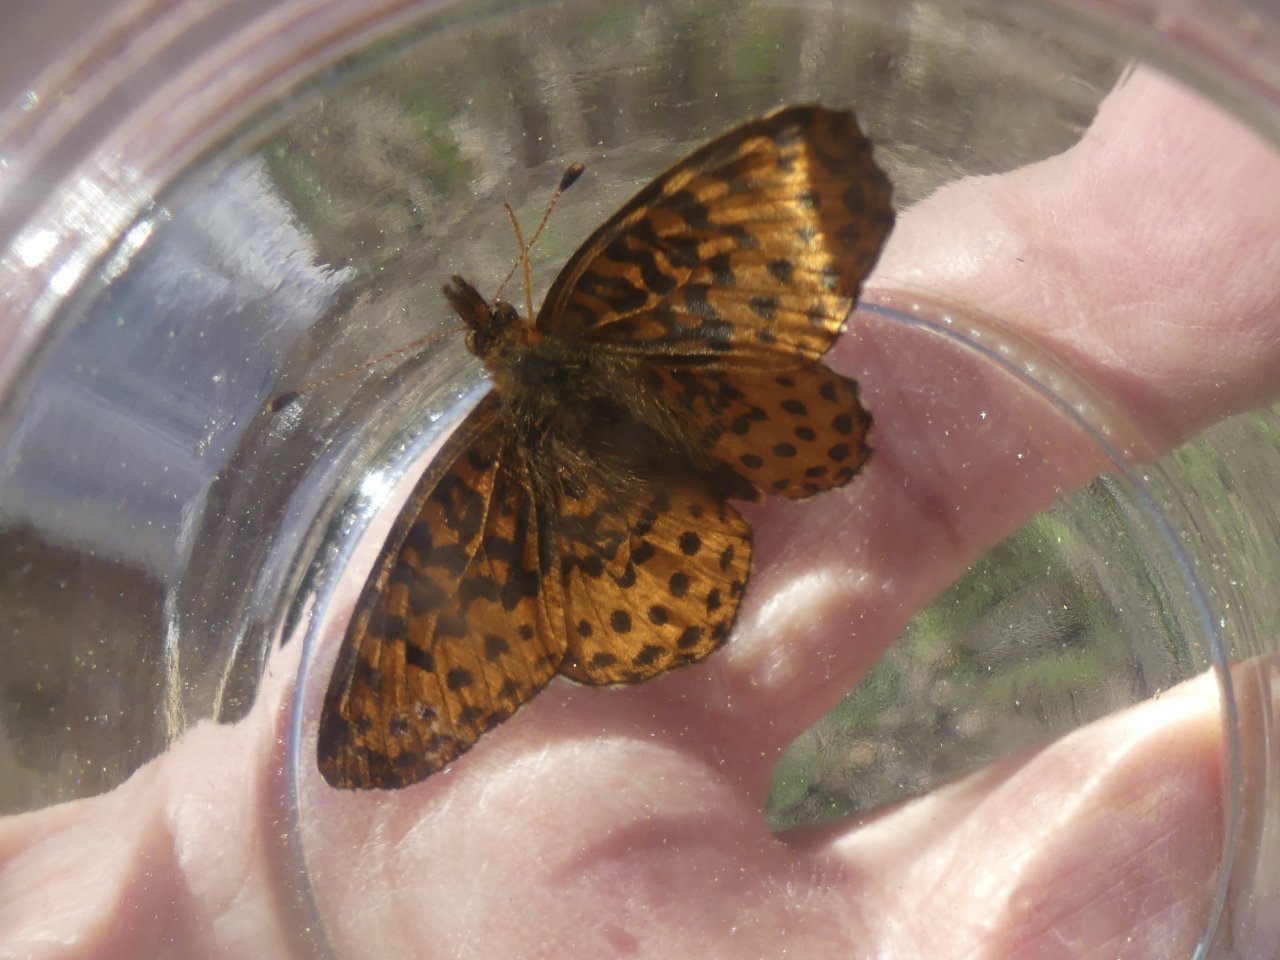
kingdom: Animalia
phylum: Arthropoda
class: Insecta
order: Lepidoptera
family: Nymphalidae
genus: Clossiana
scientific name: Clossiana toddi
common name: Meadow Fritillary
